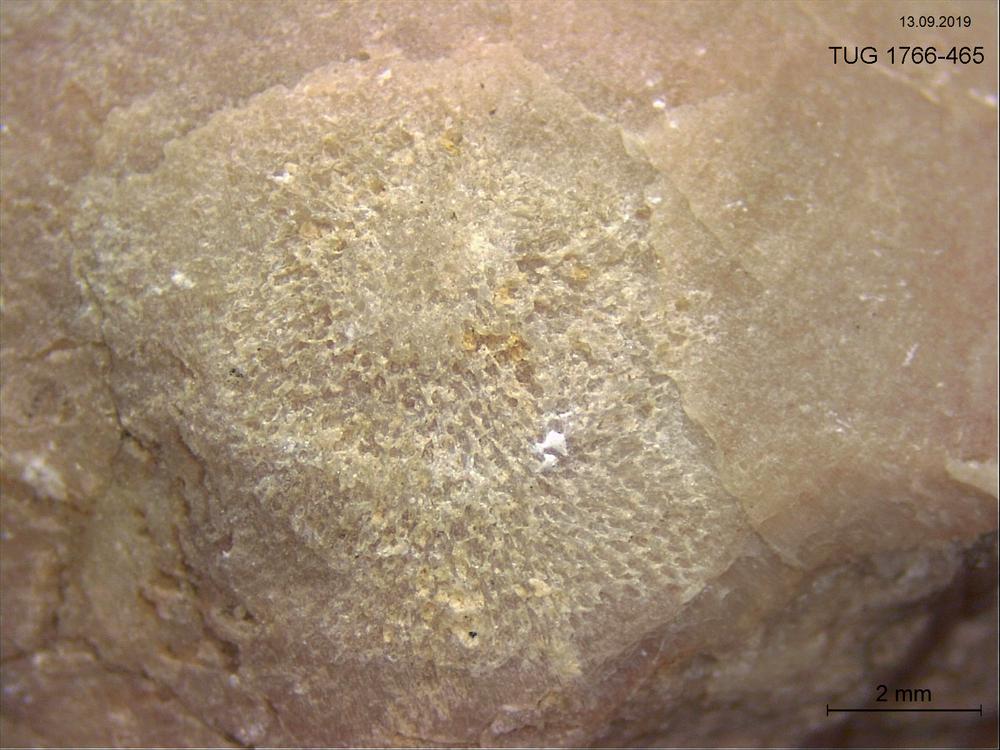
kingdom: Animalia
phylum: Bryozoa
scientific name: Bryozoa
